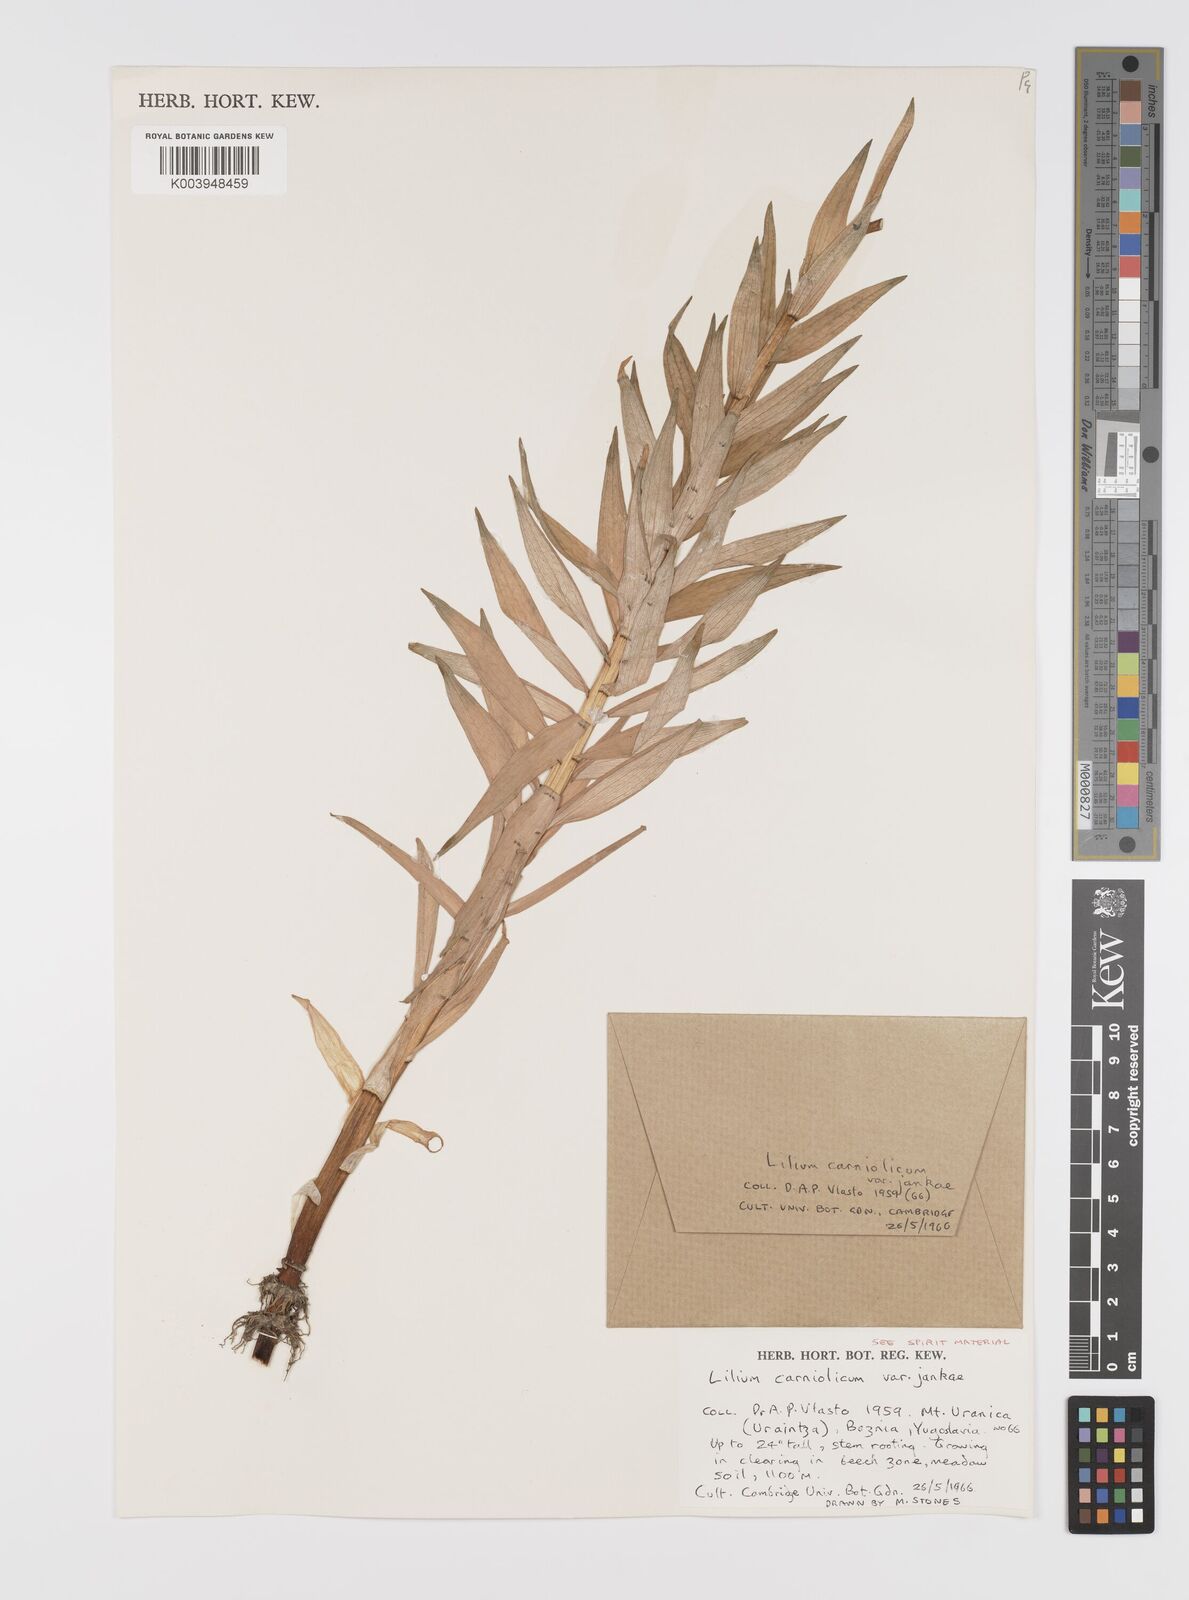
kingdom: Plantae
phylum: Tracheophyta
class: Liliopsida
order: Liliales
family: Liliaceae
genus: Lilium
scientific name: Lilium chalcedonicum
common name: Red martagon of constantinople
